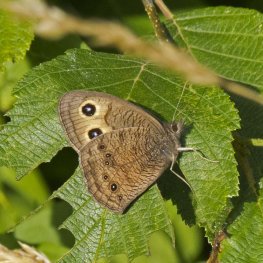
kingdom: Animalia
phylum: Arthropoda
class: Insecta
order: Lepidoptera
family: Nymphalidae
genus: Cercyonis
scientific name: Cercyonis pegala
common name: Common Wood-Nymph
